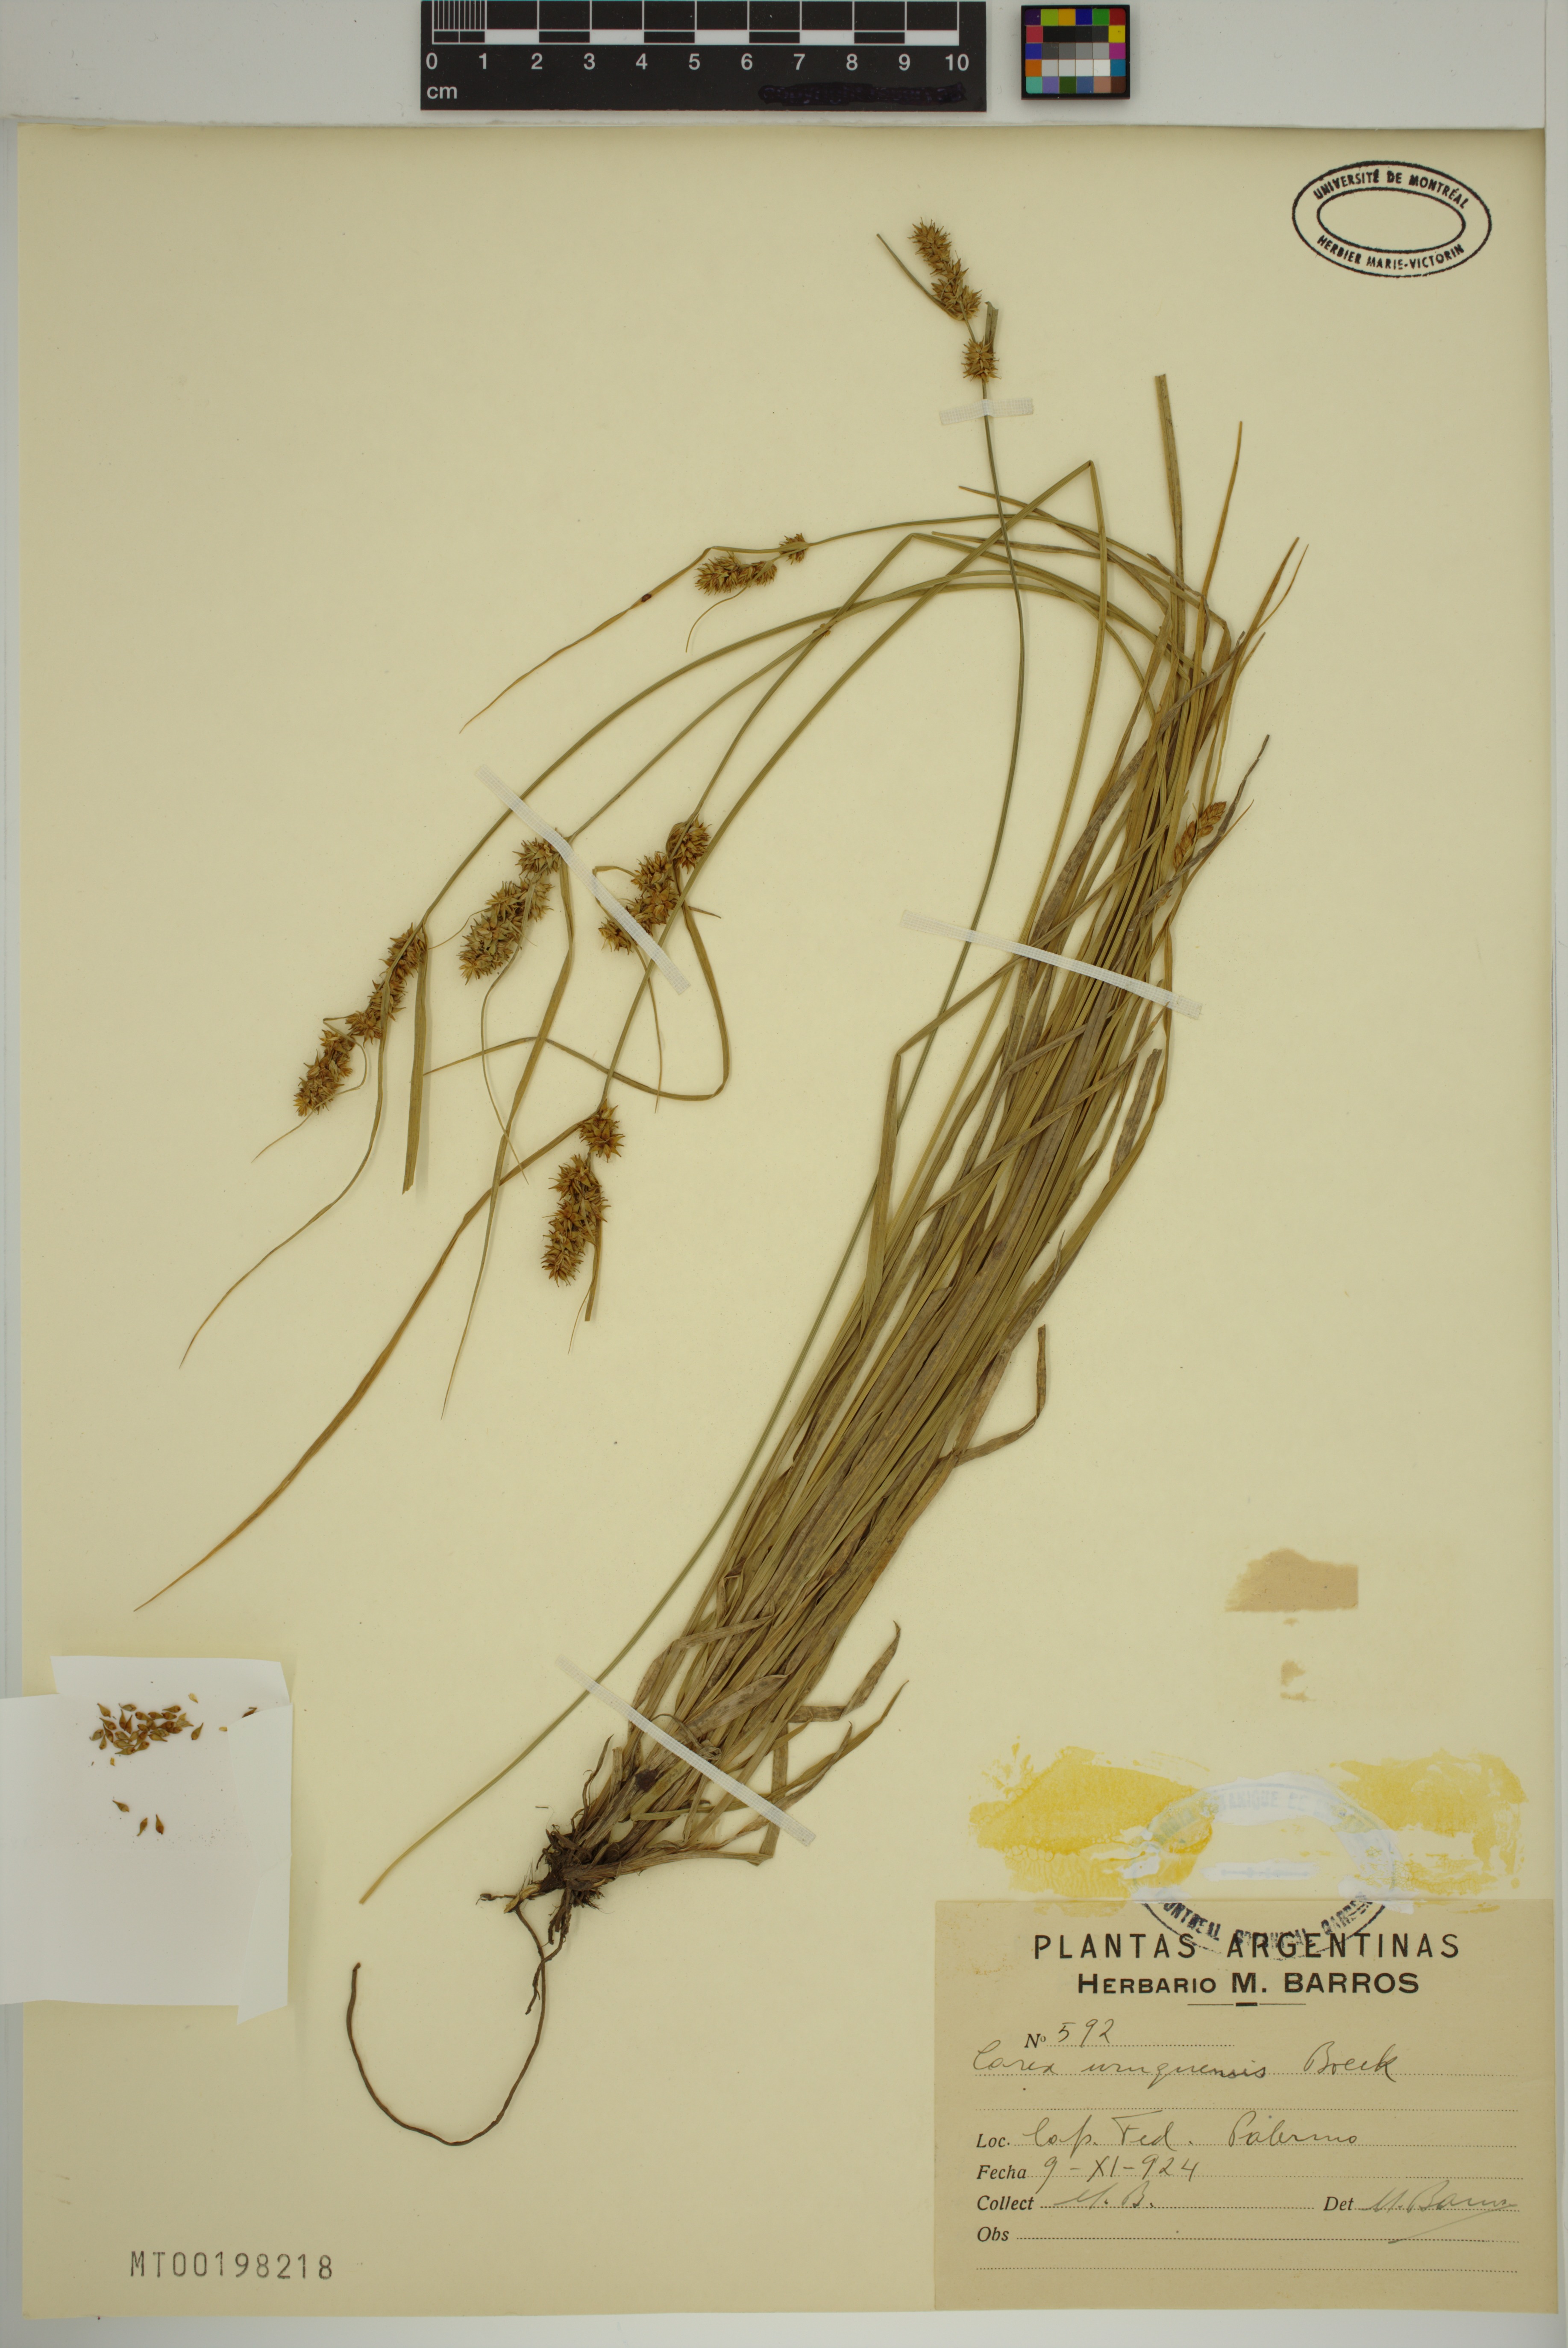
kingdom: Plantae
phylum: Tracheophyta
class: Liliopsida
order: Poales
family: Cyperaceae
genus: Carex
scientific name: Carex uruguensis
